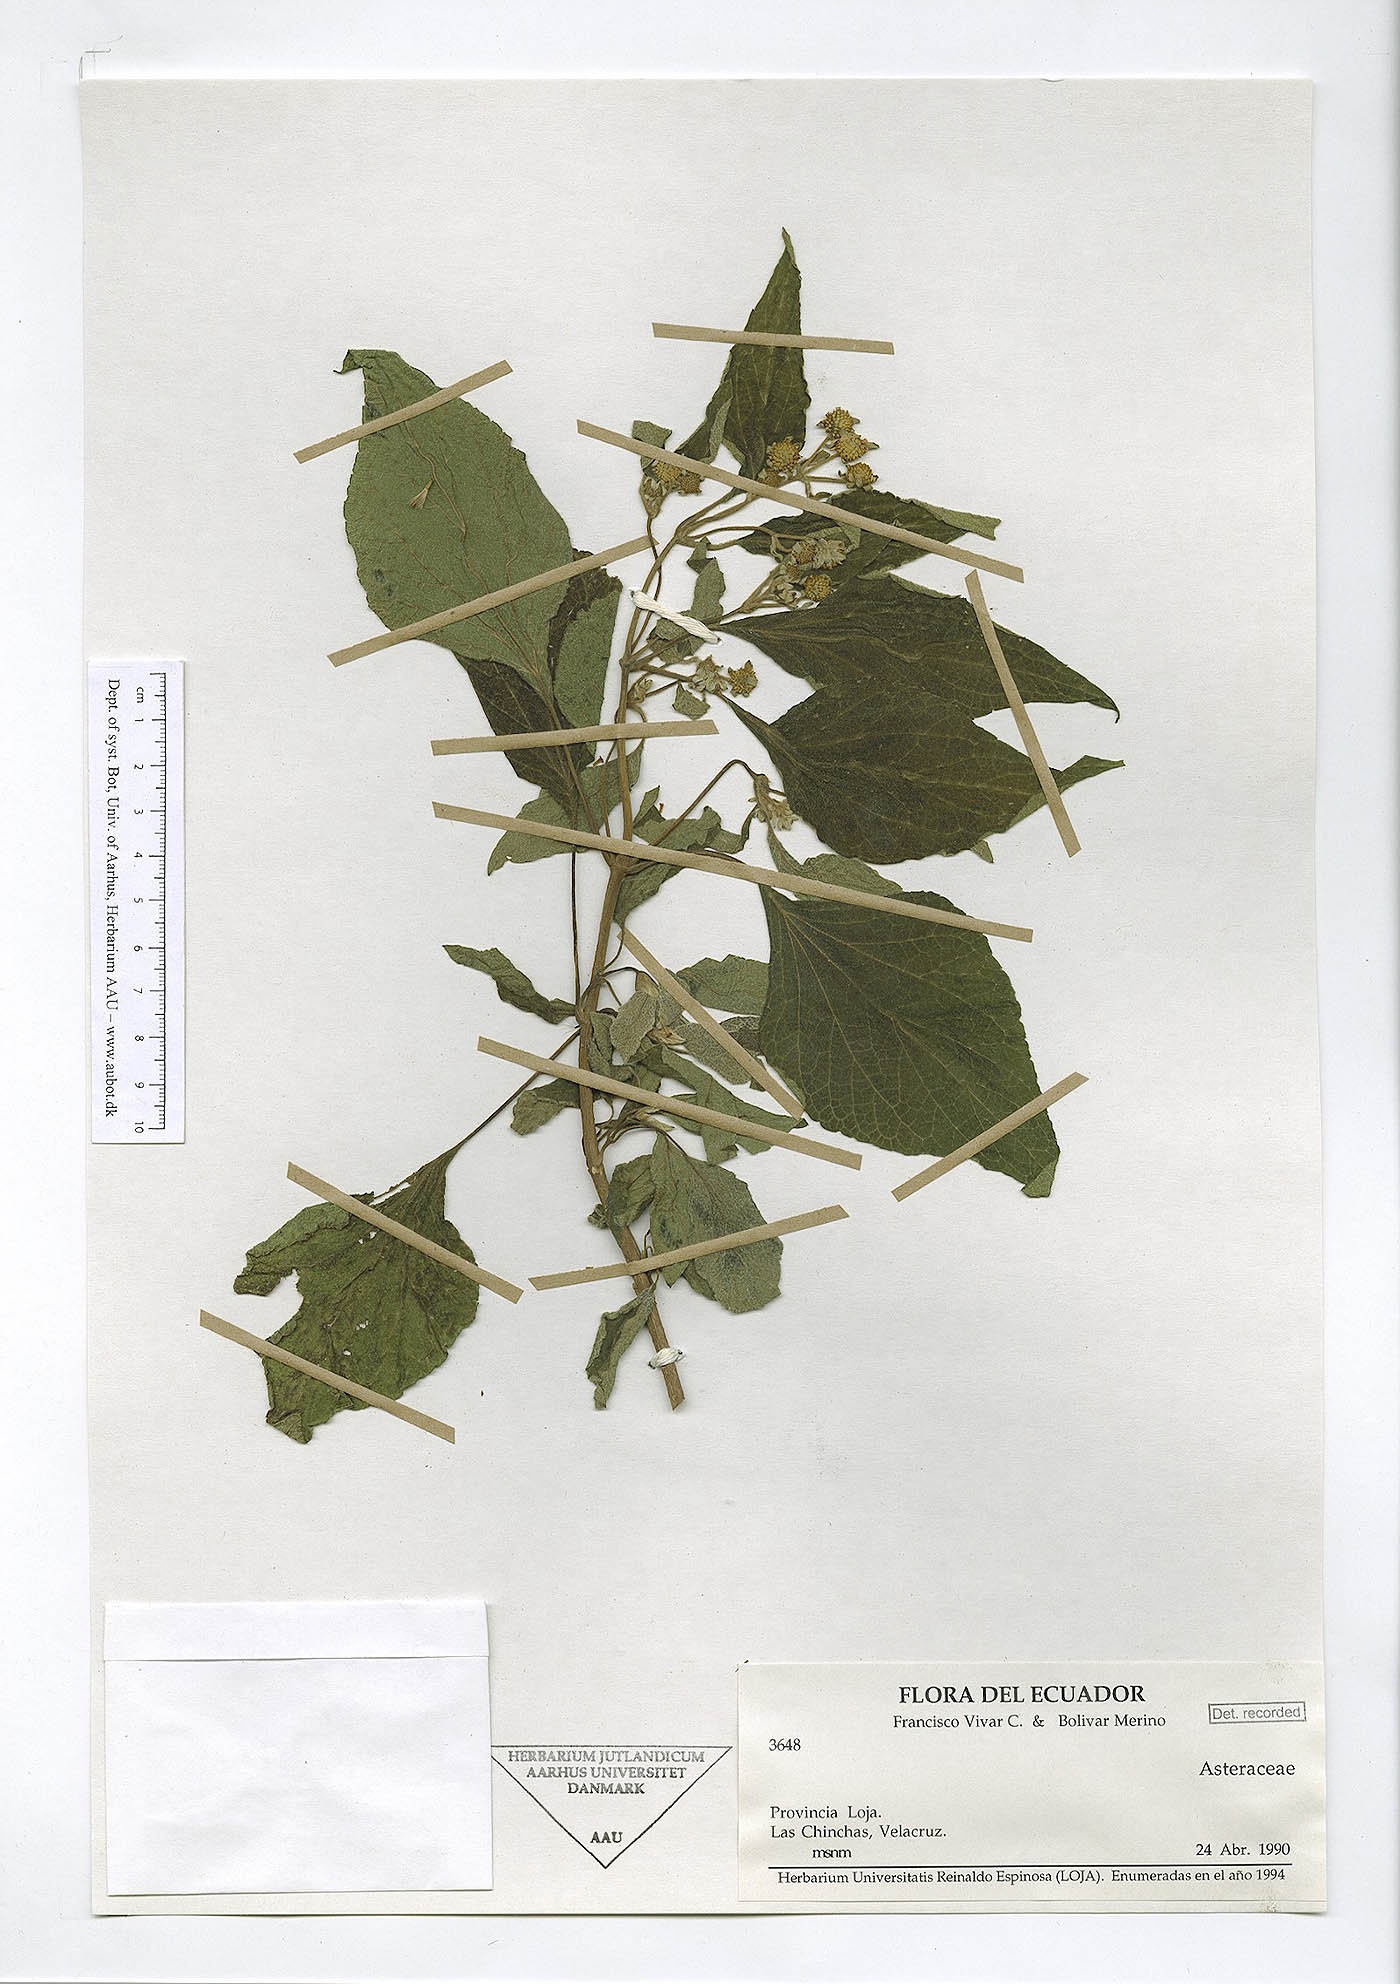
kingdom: Plantae
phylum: Tracheophyta
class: Magnoliopsida
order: Asterales
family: Asteraceae
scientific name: Asteraceae
